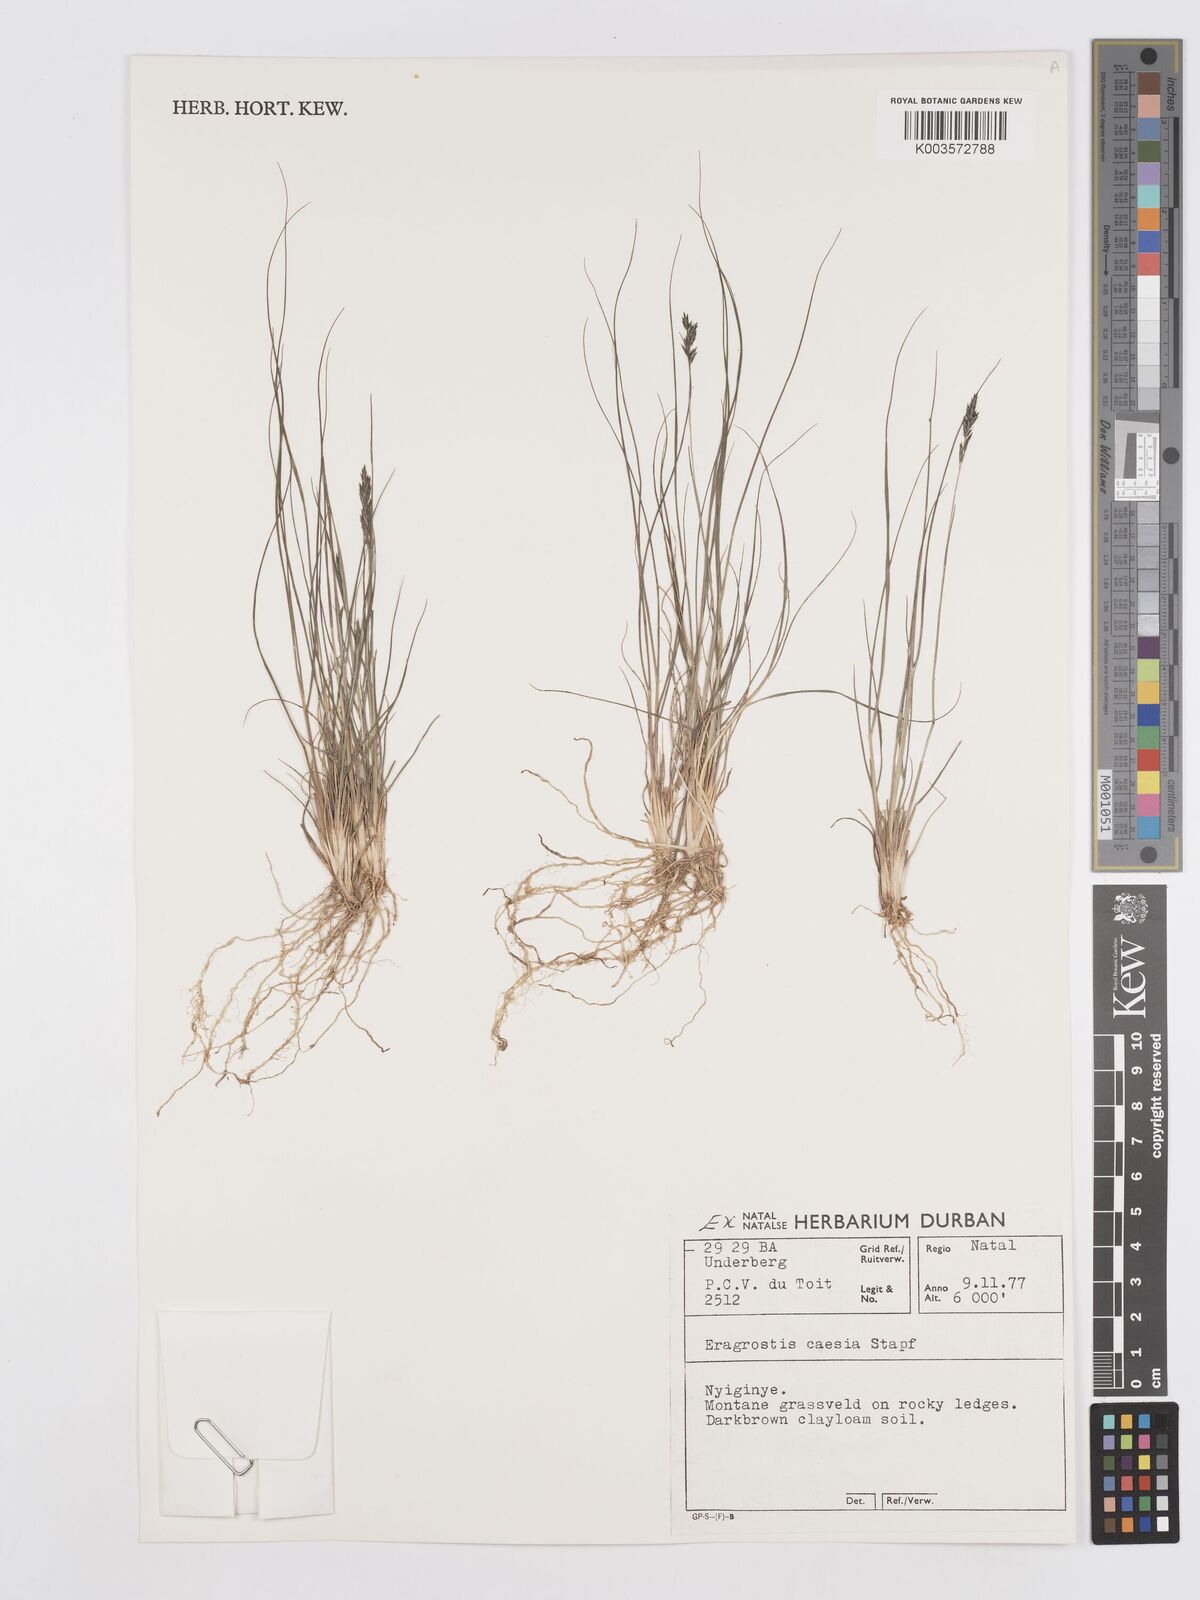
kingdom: Plantae
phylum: Tracheophyta
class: Liliopsida
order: Poales
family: Poaceae
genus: Eragrostis
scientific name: Eragrostis caesia
